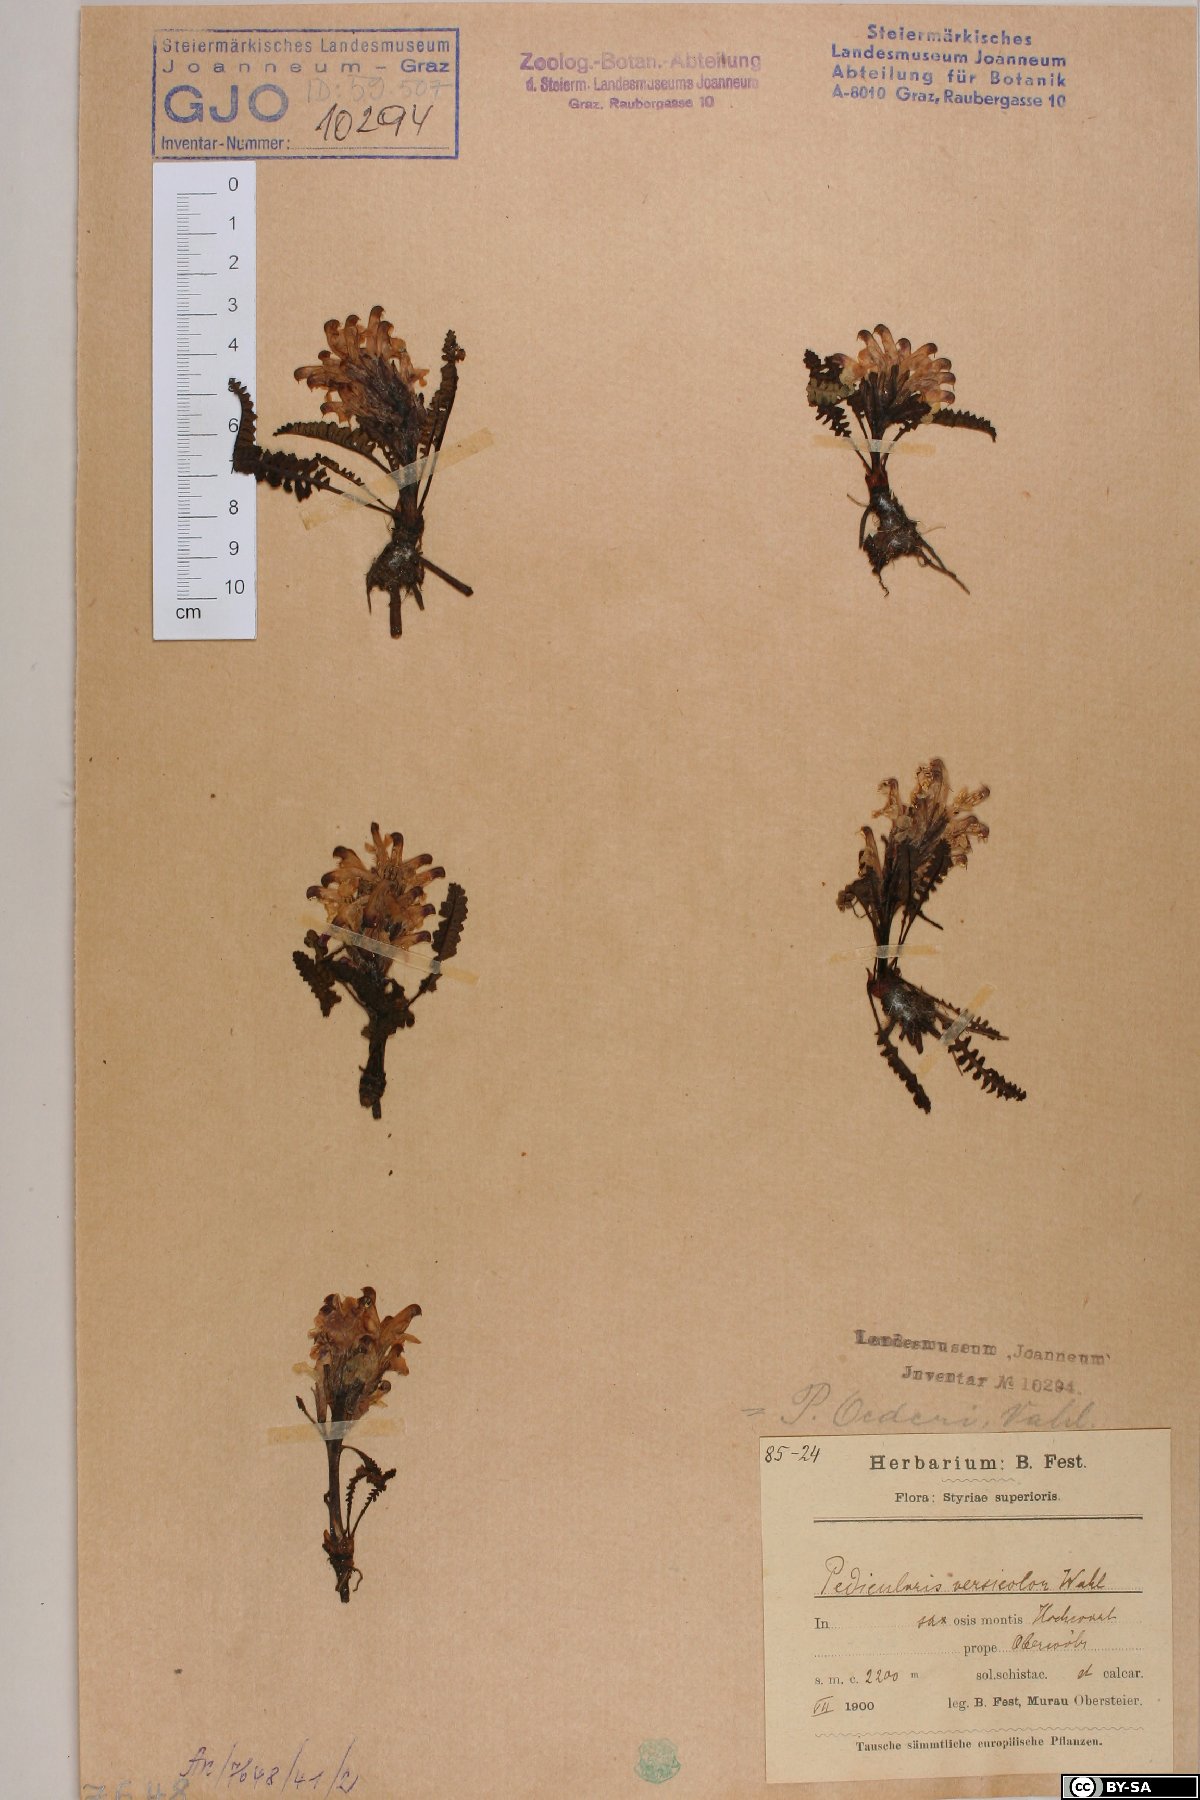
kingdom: Plantae
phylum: Tracheophyta
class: Magnoliopsida
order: Lamiales
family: Orobanchaceae
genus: Pedicularis
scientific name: Pedicularis oederi
